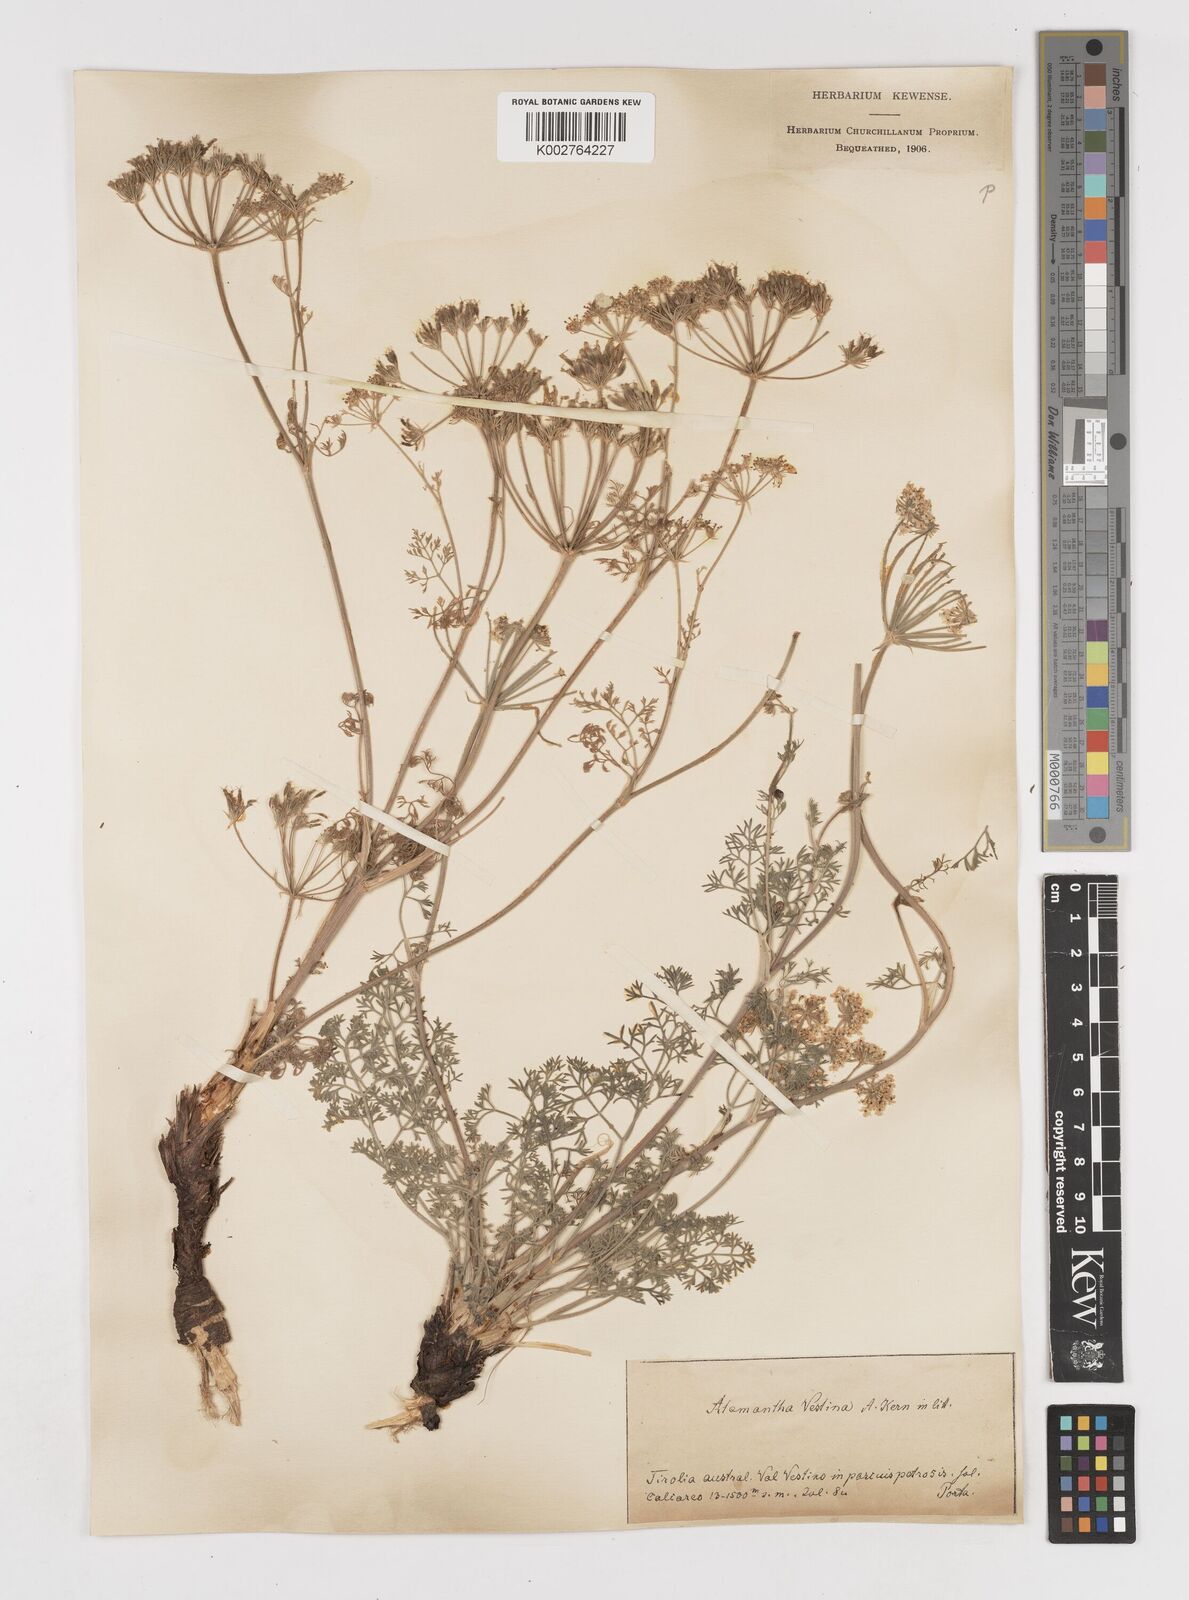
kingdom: Plantae
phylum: Tracheophyta
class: Magnoliopsida
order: Apiales
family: Apiaceae
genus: Athamanta
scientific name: Athamanta cretensis
